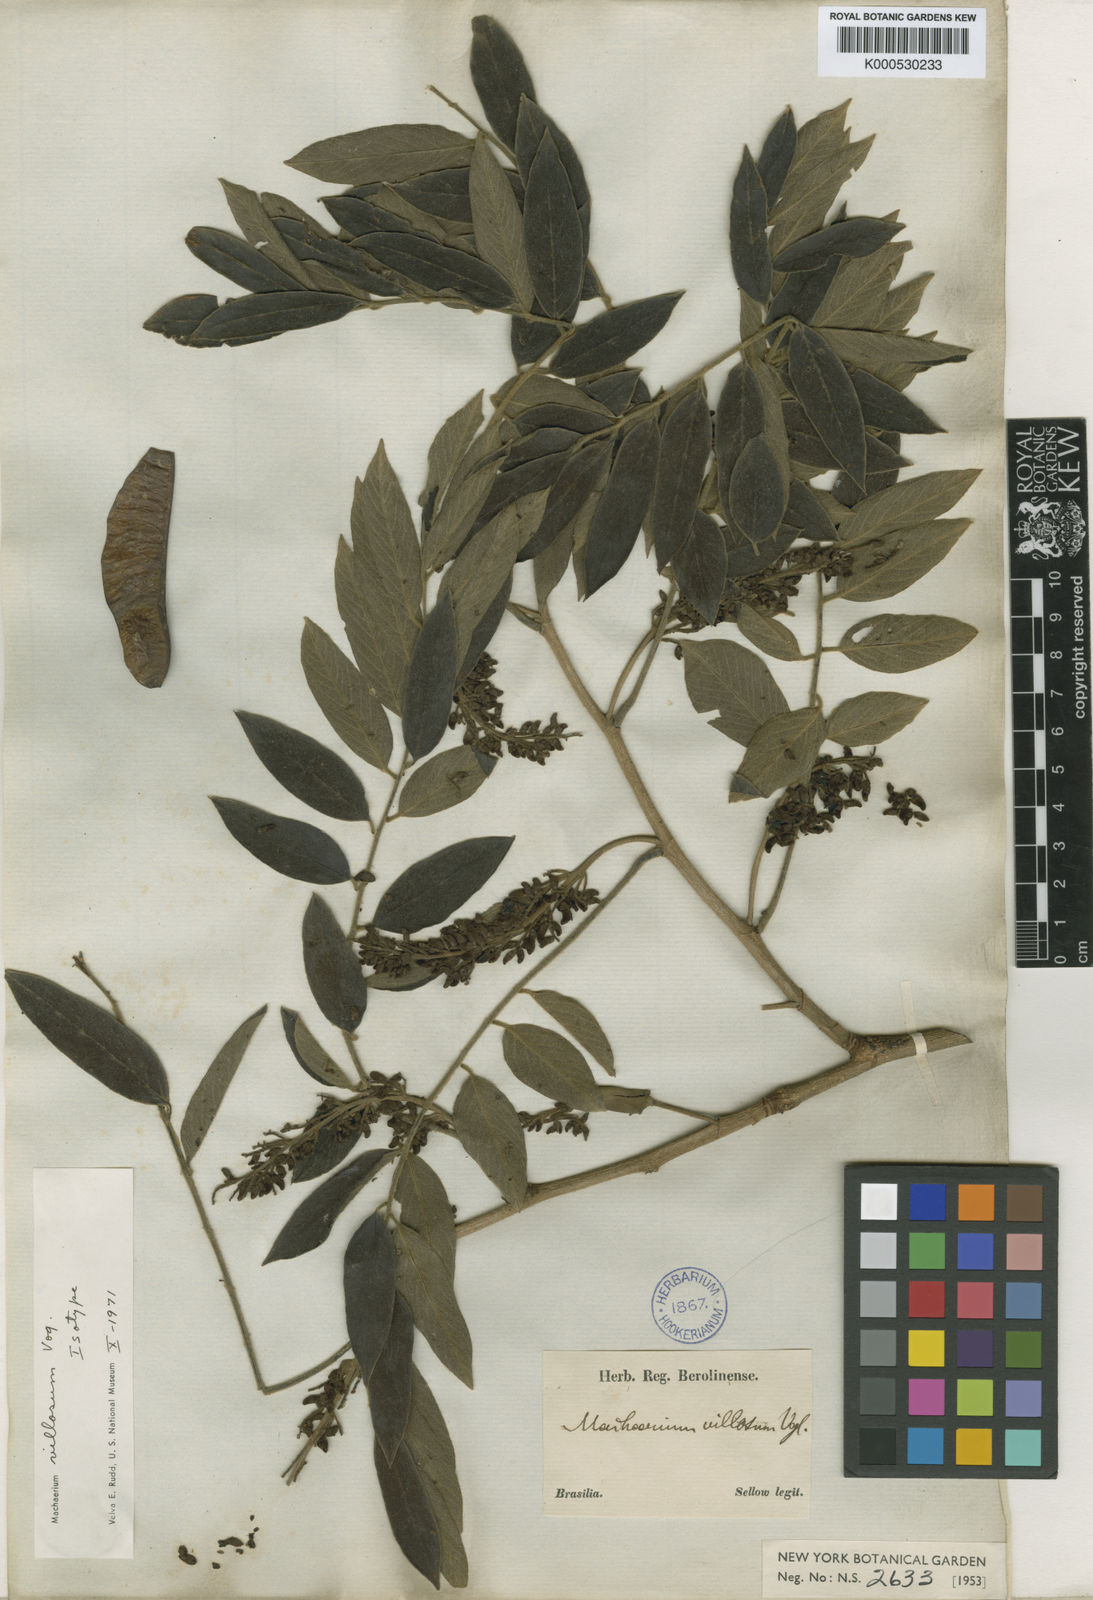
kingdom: Plantae
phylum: Tracheophyta
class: Magnoliopsida
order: Fabales
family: Fabaceae
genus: Machaerium
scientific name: Machaerium villosum
